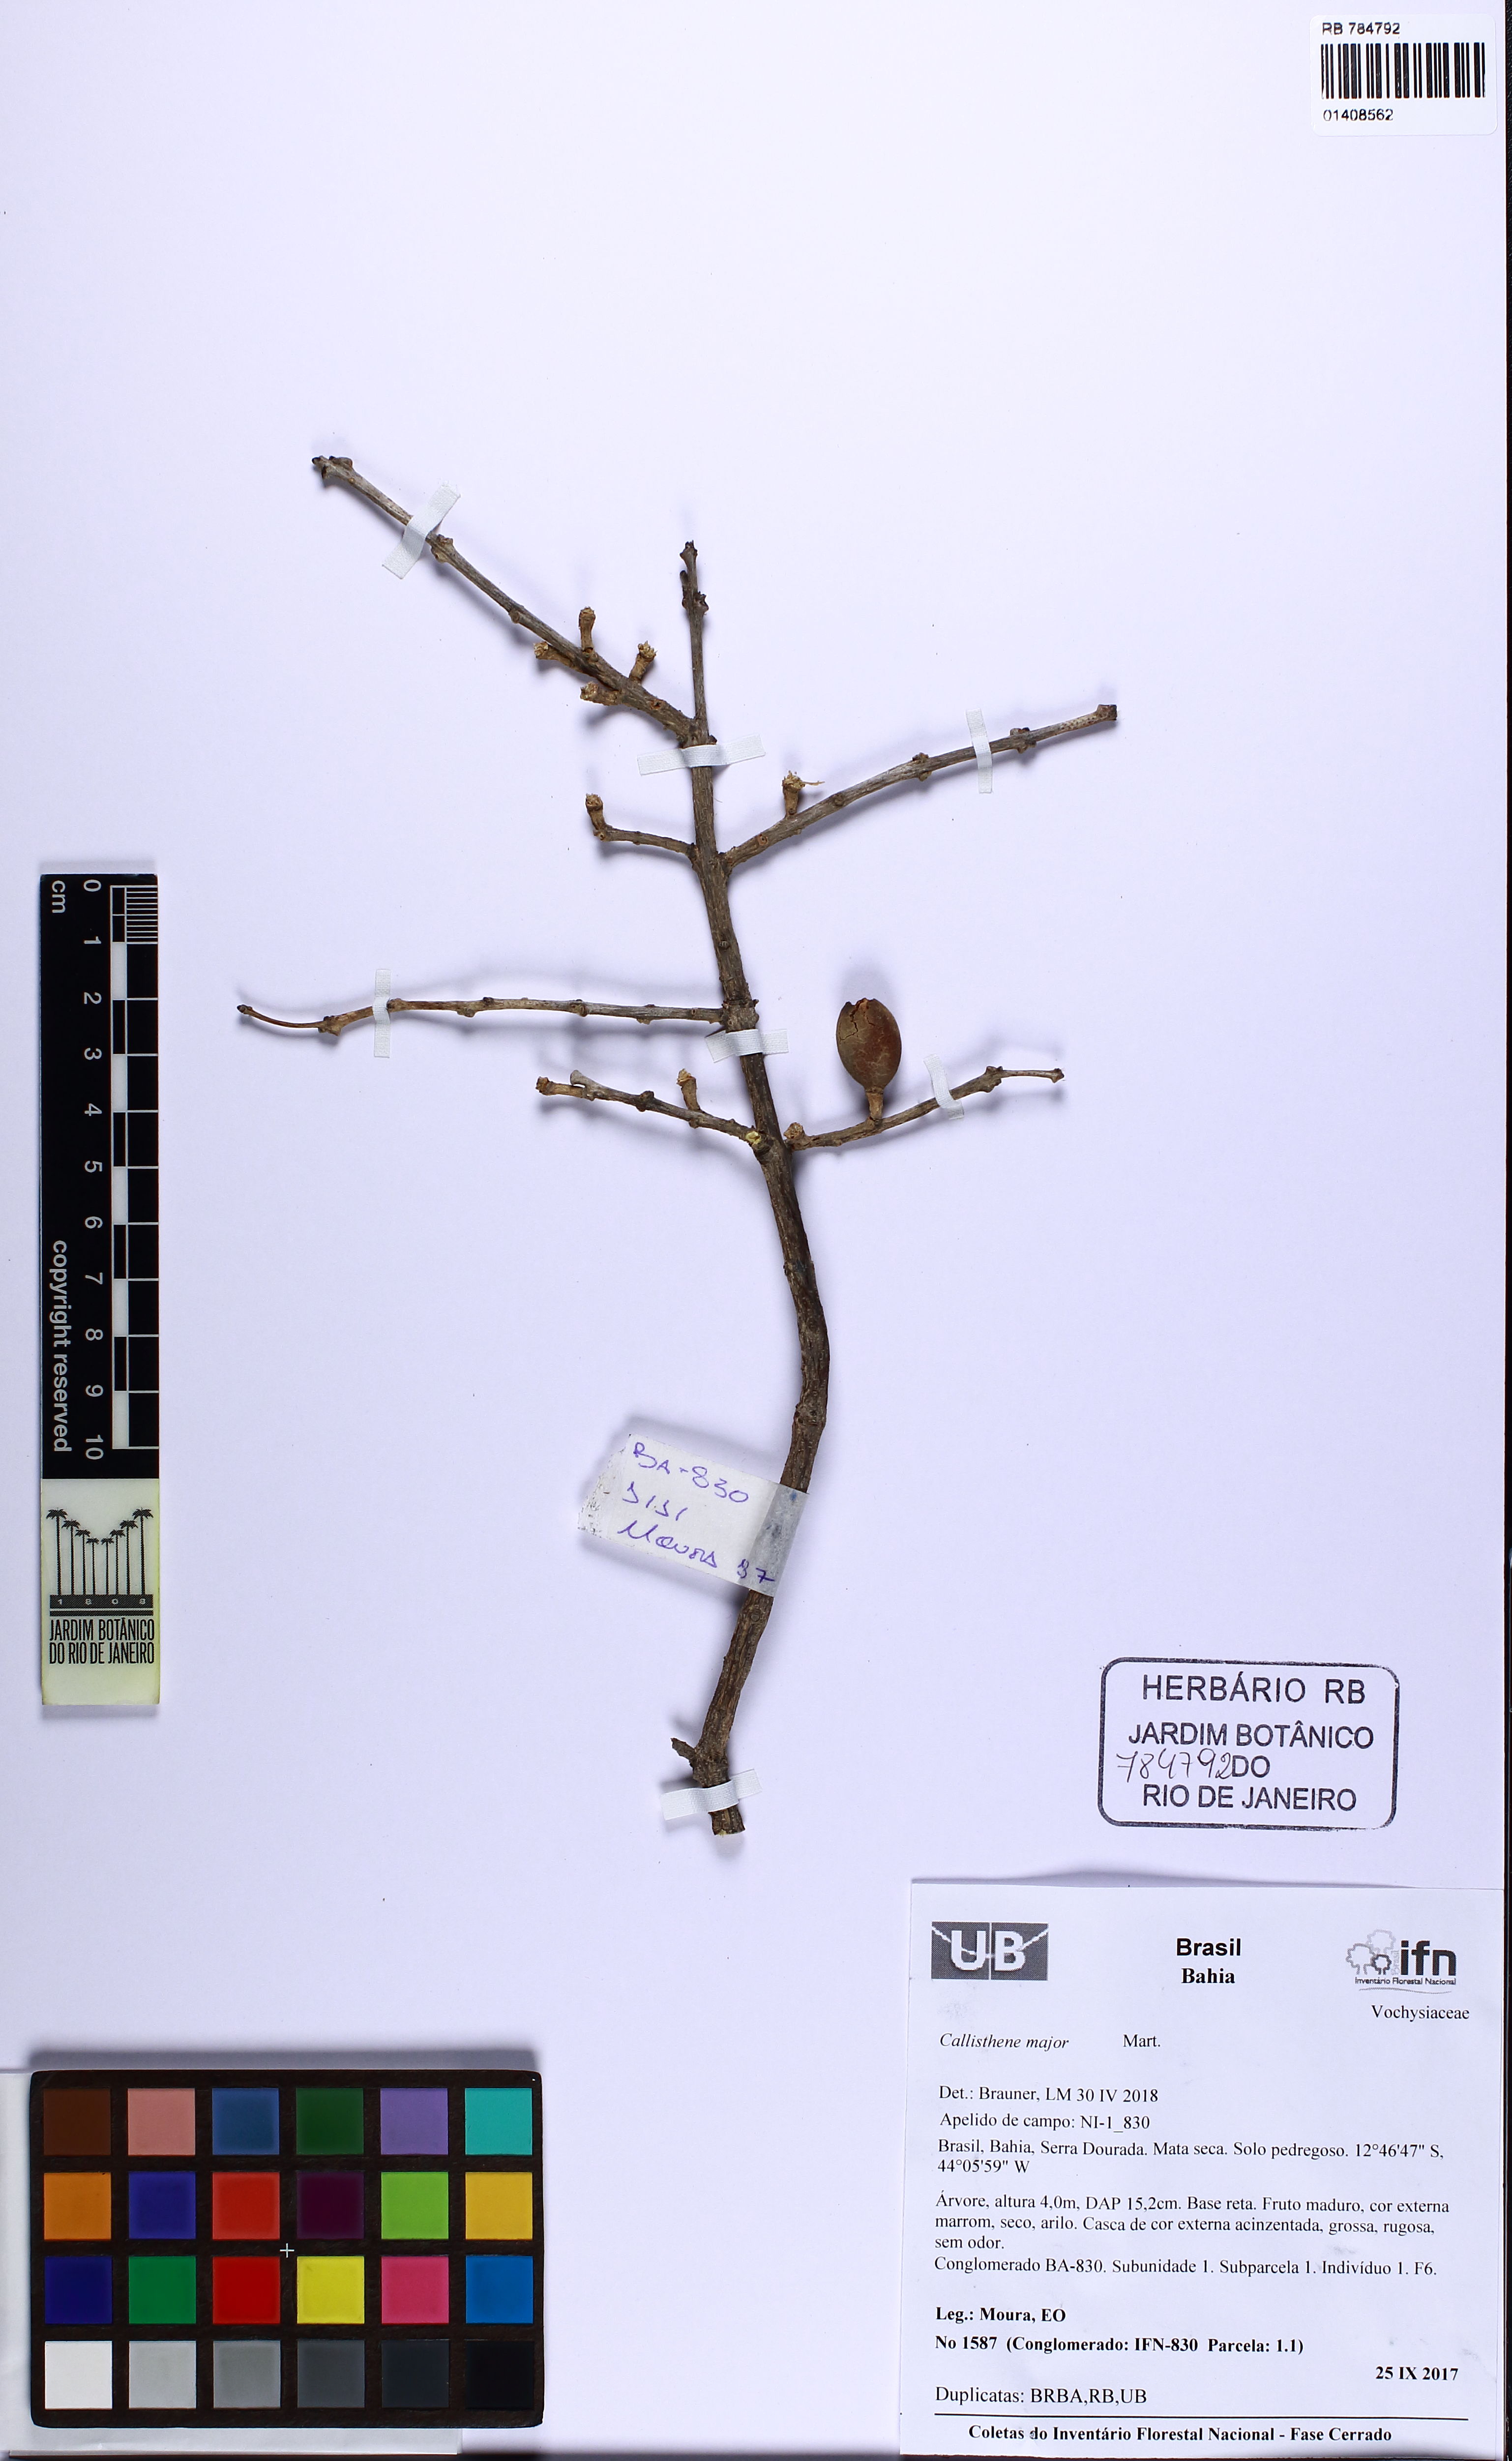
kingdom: Plantae
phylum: Tracheophyta
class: Magnoliopsida
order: Myrtales
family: Vochysiaceae
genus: Callisthene
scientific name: Callisthene major
